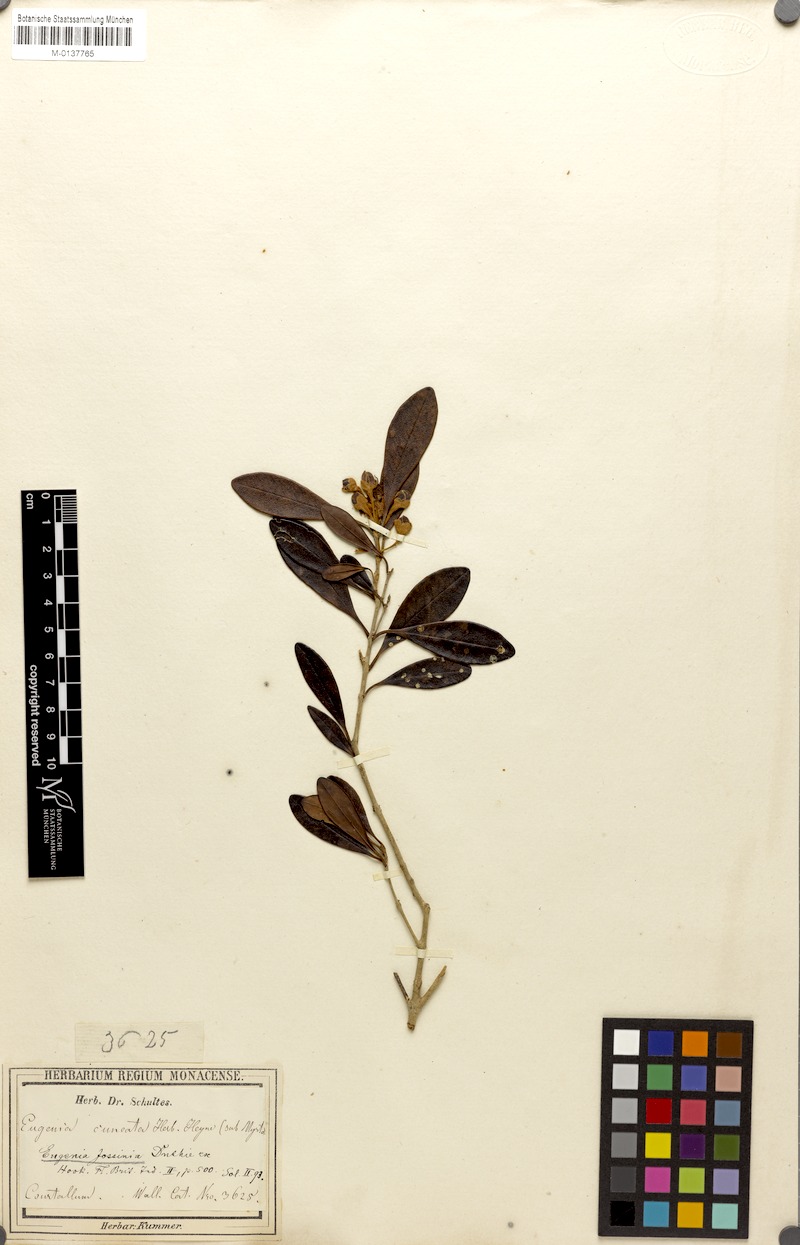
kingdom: Plantae
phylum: Tracheophyta
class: Magnoliopsida
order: Myrtales
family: Myrtaceae
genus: Eugenia
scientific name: Eugenia indica
